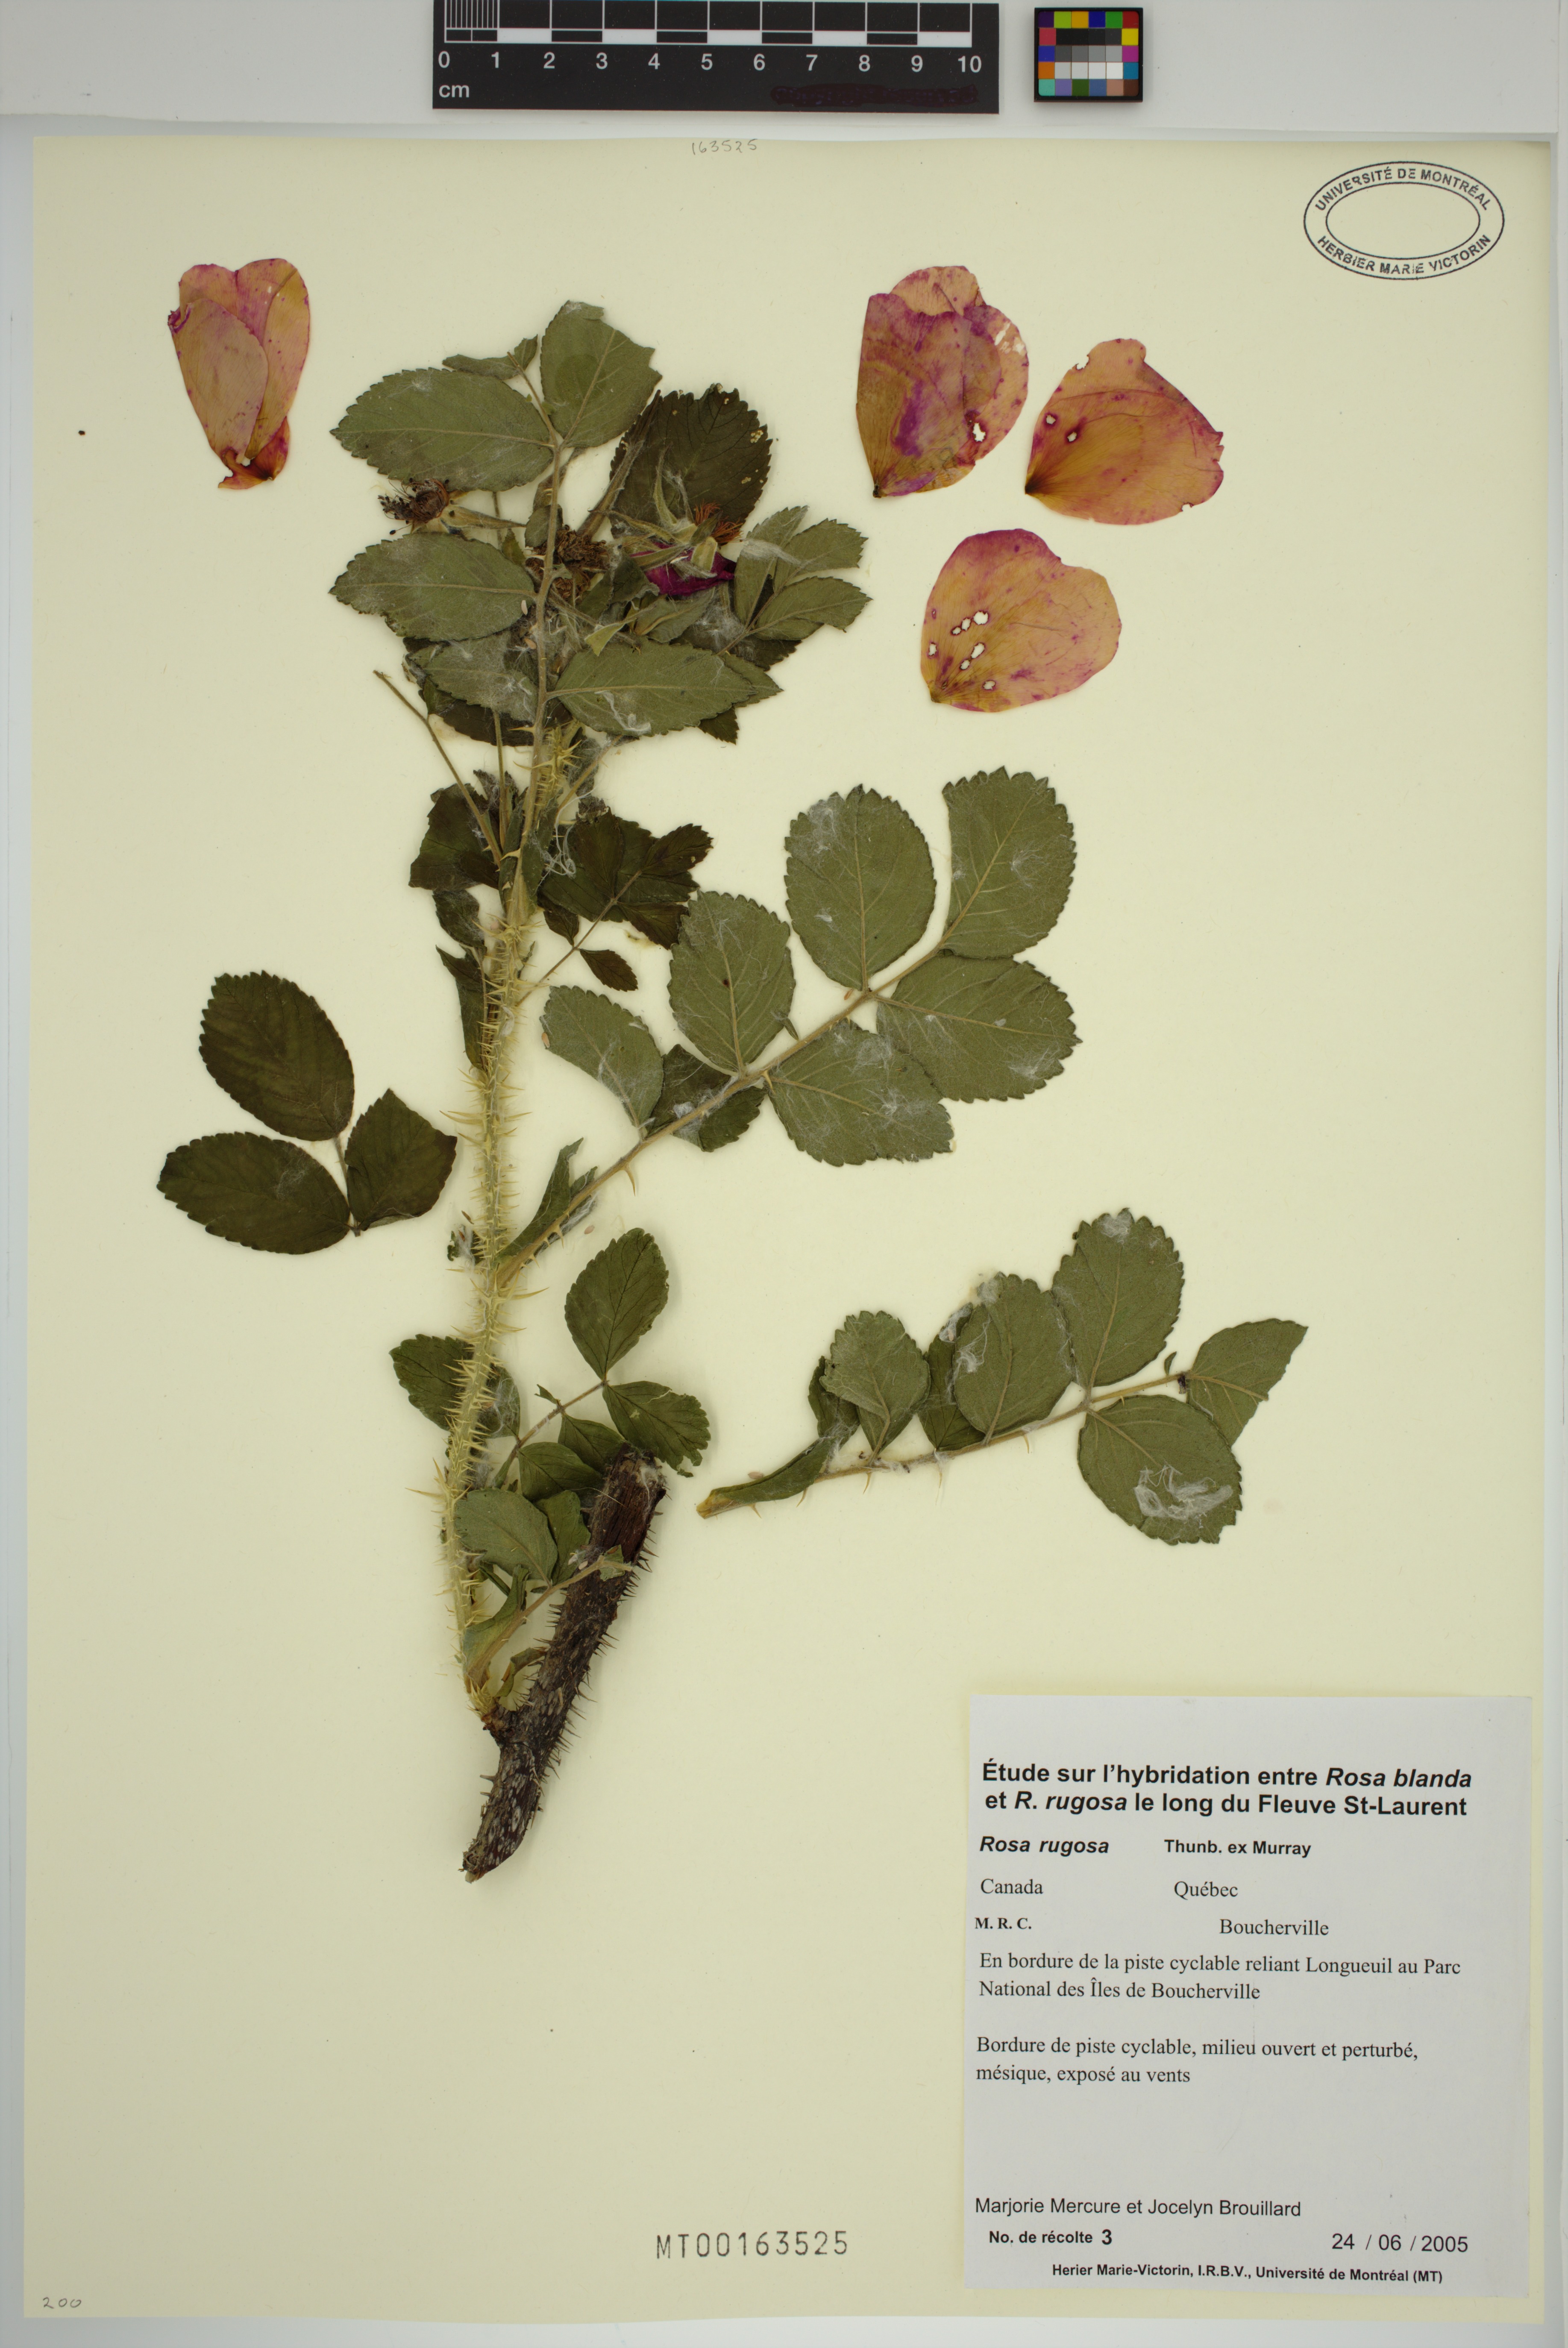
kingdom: Plantae
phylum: Tracheophyta
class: Magnoliopsida
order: Rosales
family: Rosaceae
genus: Rosa
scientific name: Rosa rugosa
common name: Japanese rose
